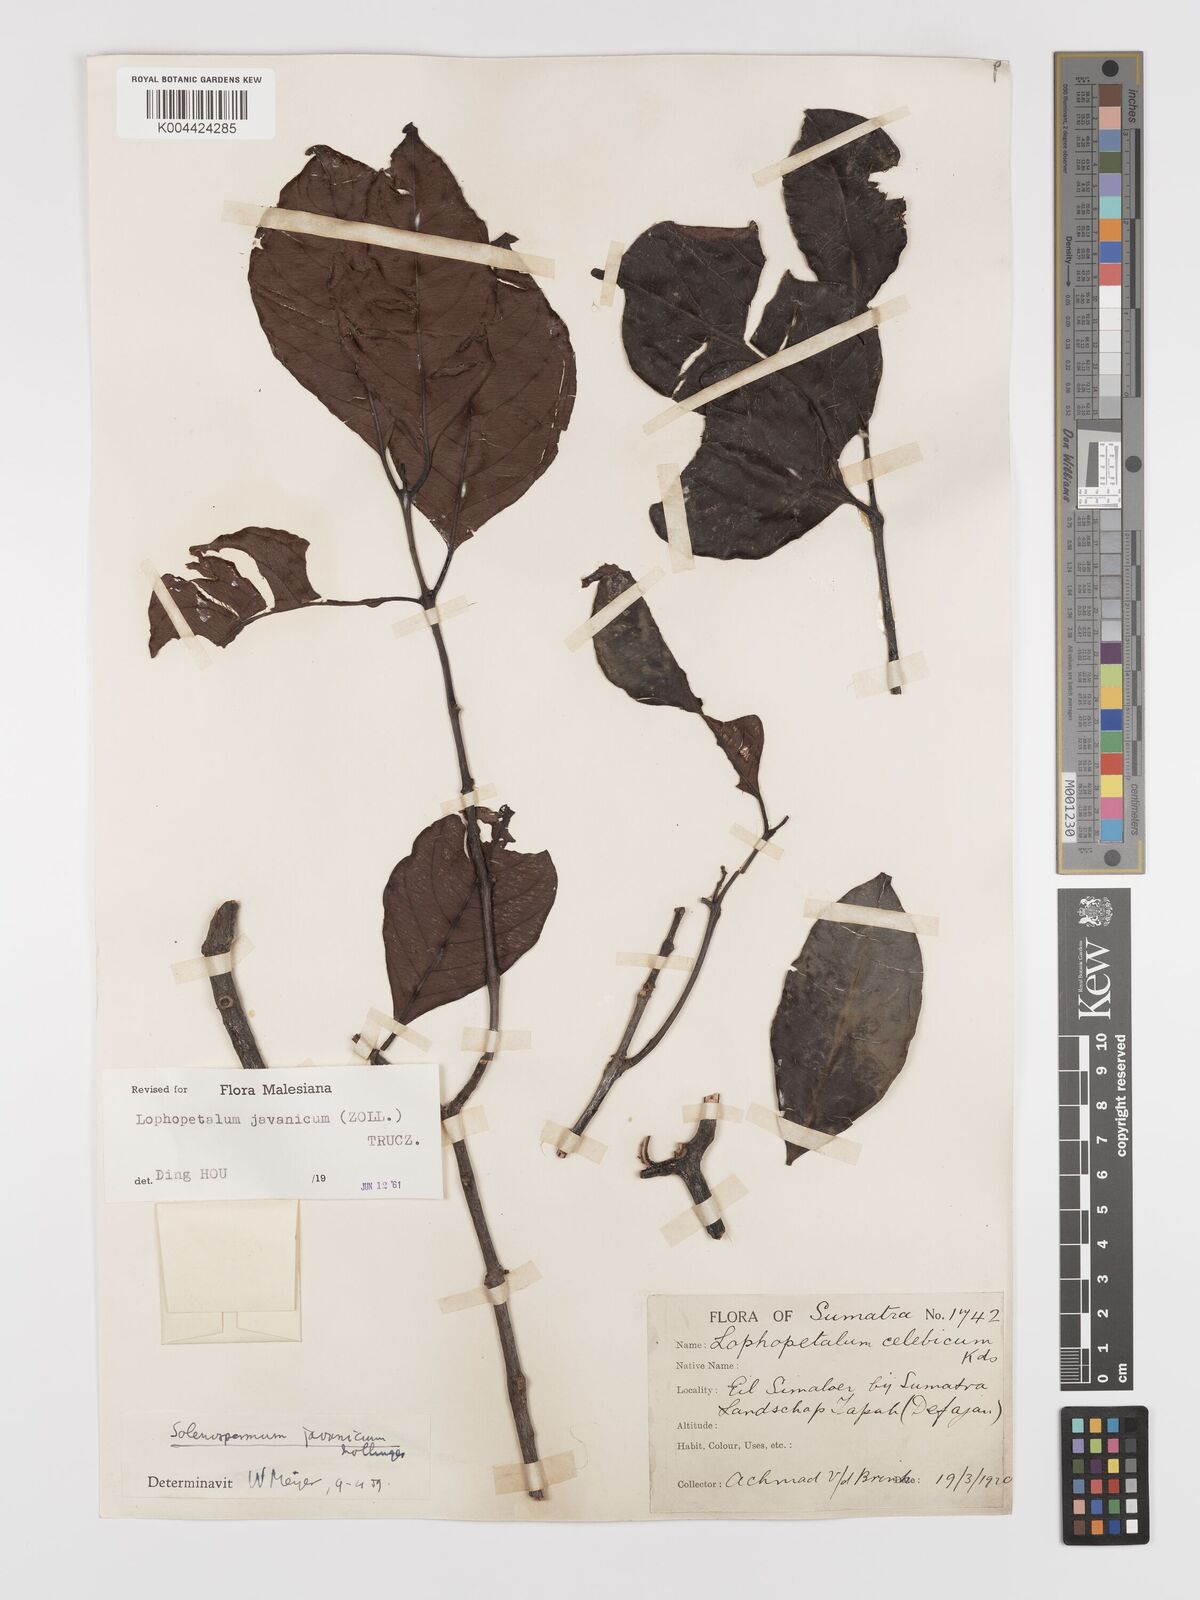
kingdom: Plantae
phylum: Tracheophyta
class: Magnoliopsida
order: Celastrales
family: Celastraceae
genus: Lophopetalum
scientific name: Lophopetalum javanicum
